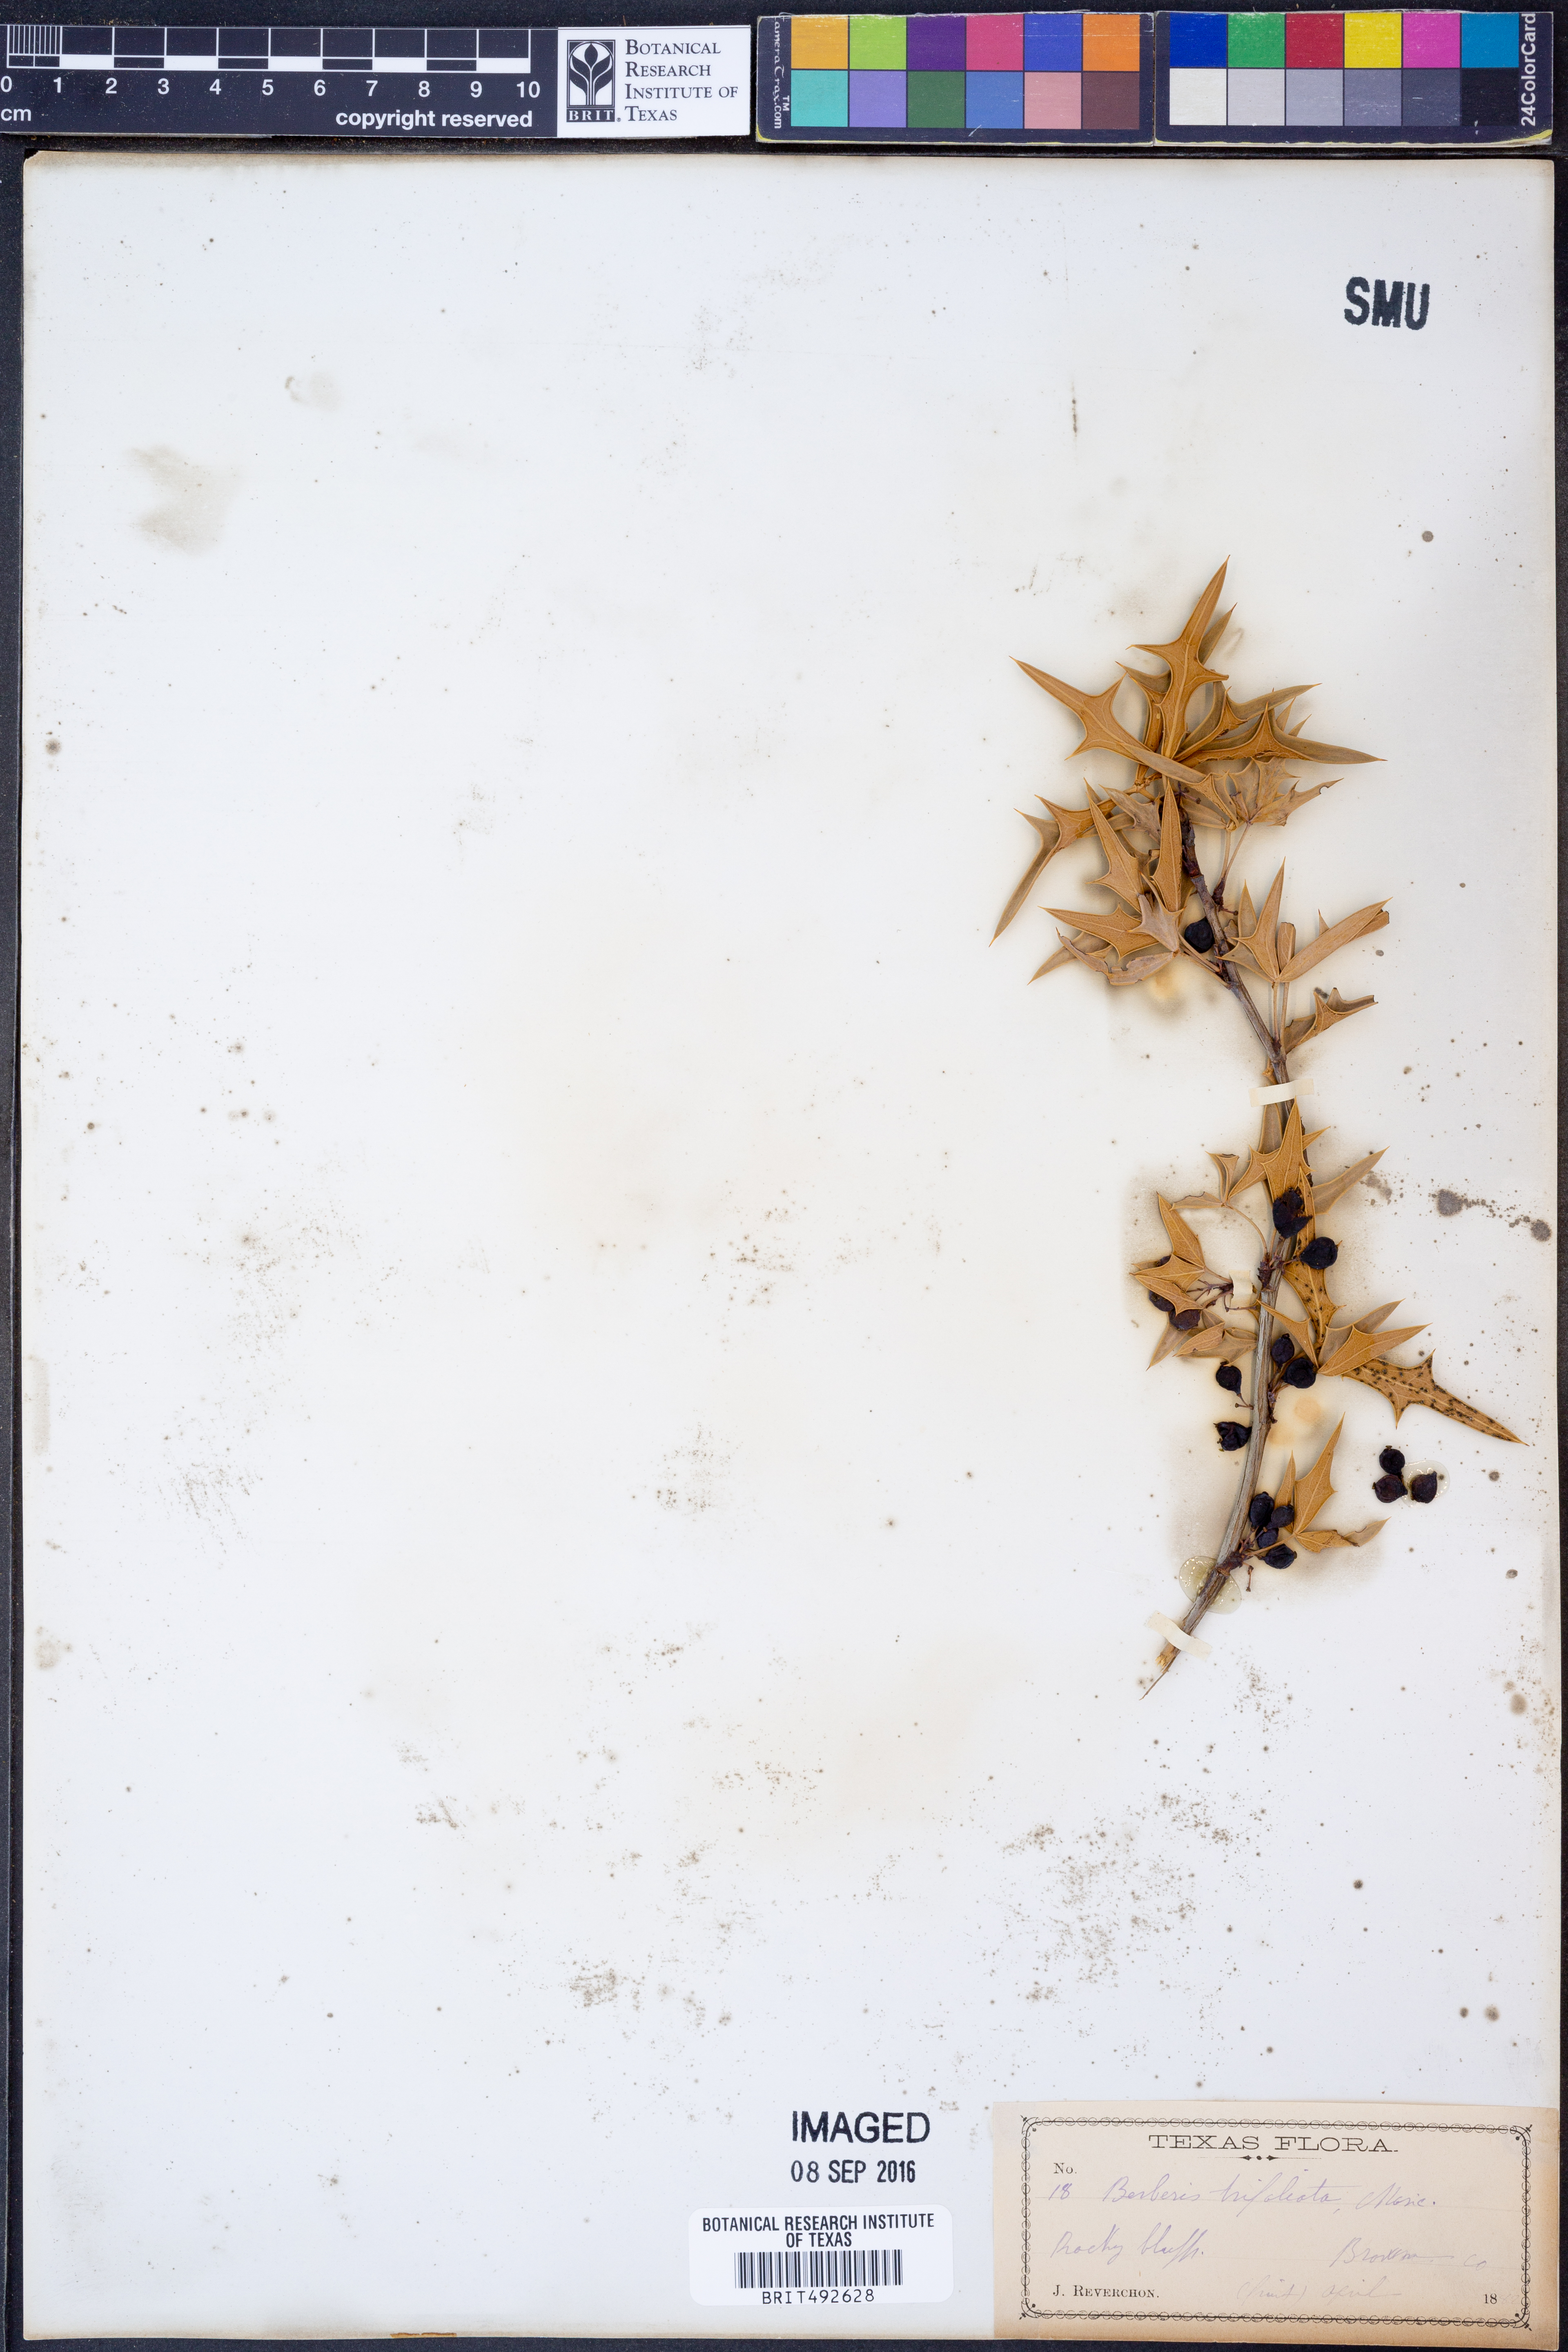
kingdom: Plantae
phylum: Tracheophyta
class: Magnoliopsida
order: Ranunculales
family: Berberidaceae
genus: Alloberberis
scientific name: Alloberberis fremontii
